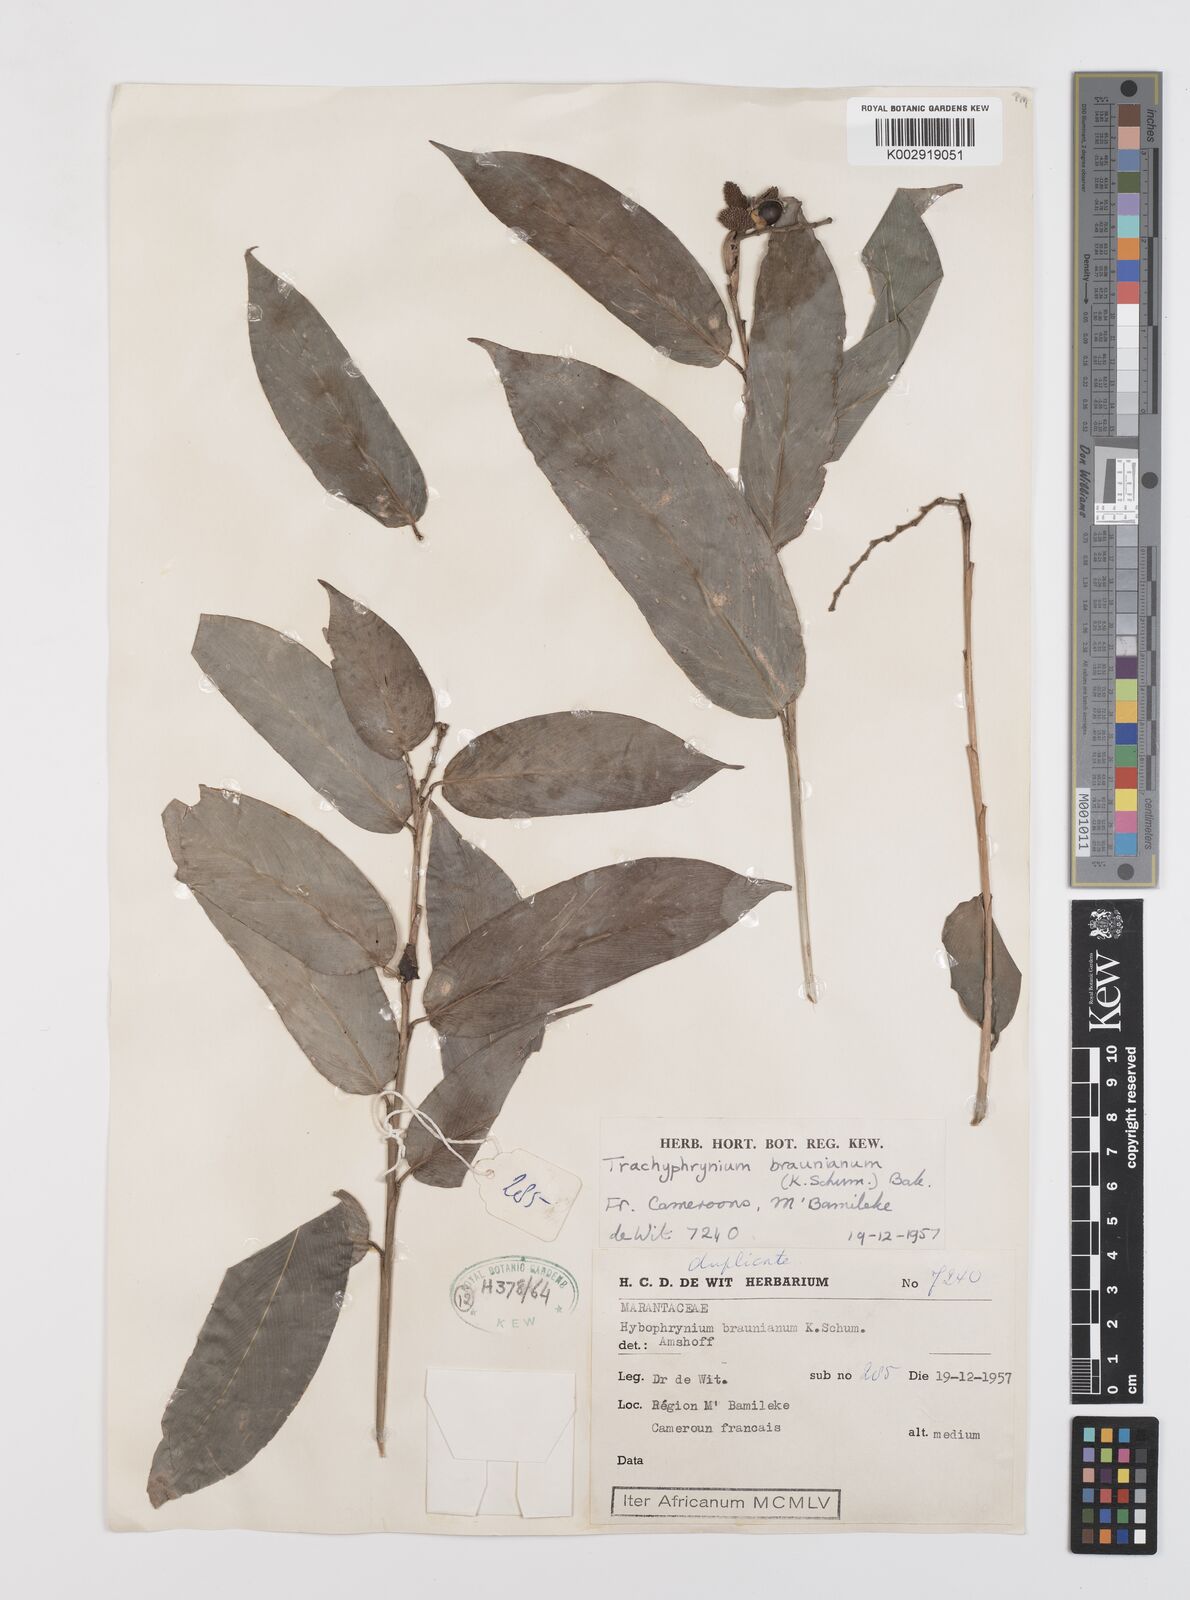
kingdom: Plantae
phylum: Tracheophyta
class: Liliopsida
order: Zingiberales
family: Marantaceae
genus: Trachyphrynium
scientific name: Trachyphrynium braunianum
